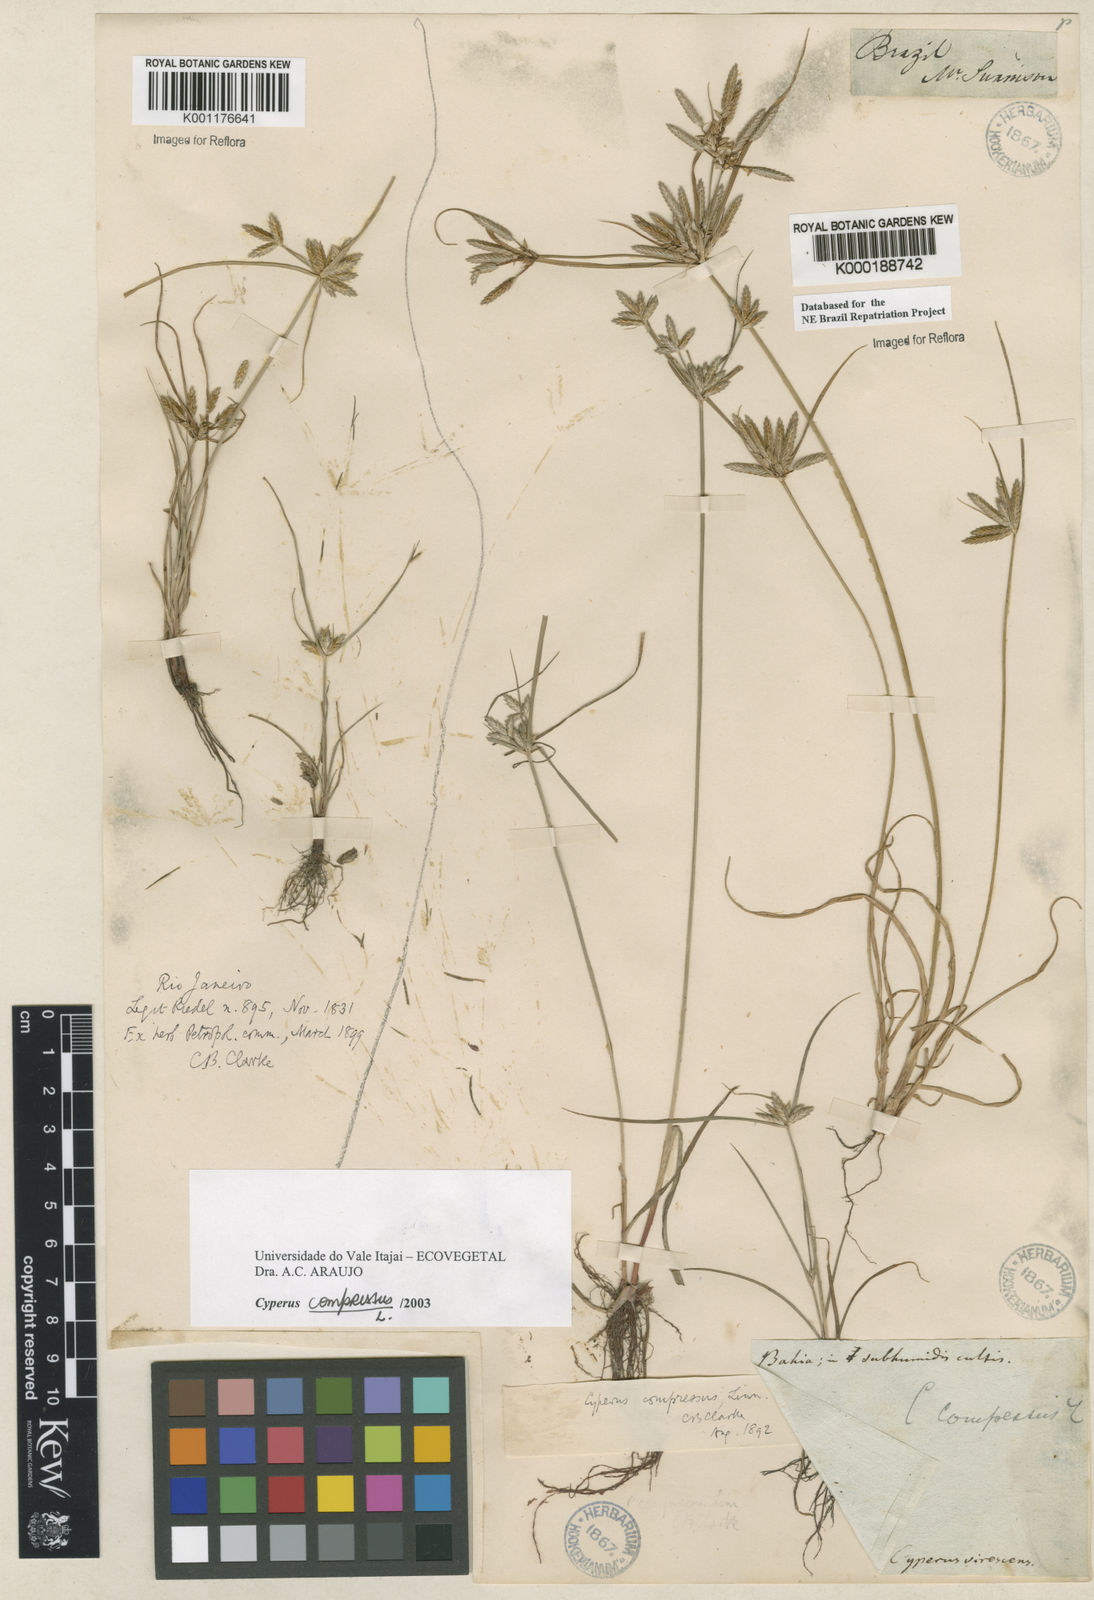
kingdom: Plantae
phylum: Tracheophyta
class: Liliopsida
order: Poales
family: Cyperaceae
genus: Cyperus
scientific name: Cyperus compressus
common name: Poorland flatsedge
